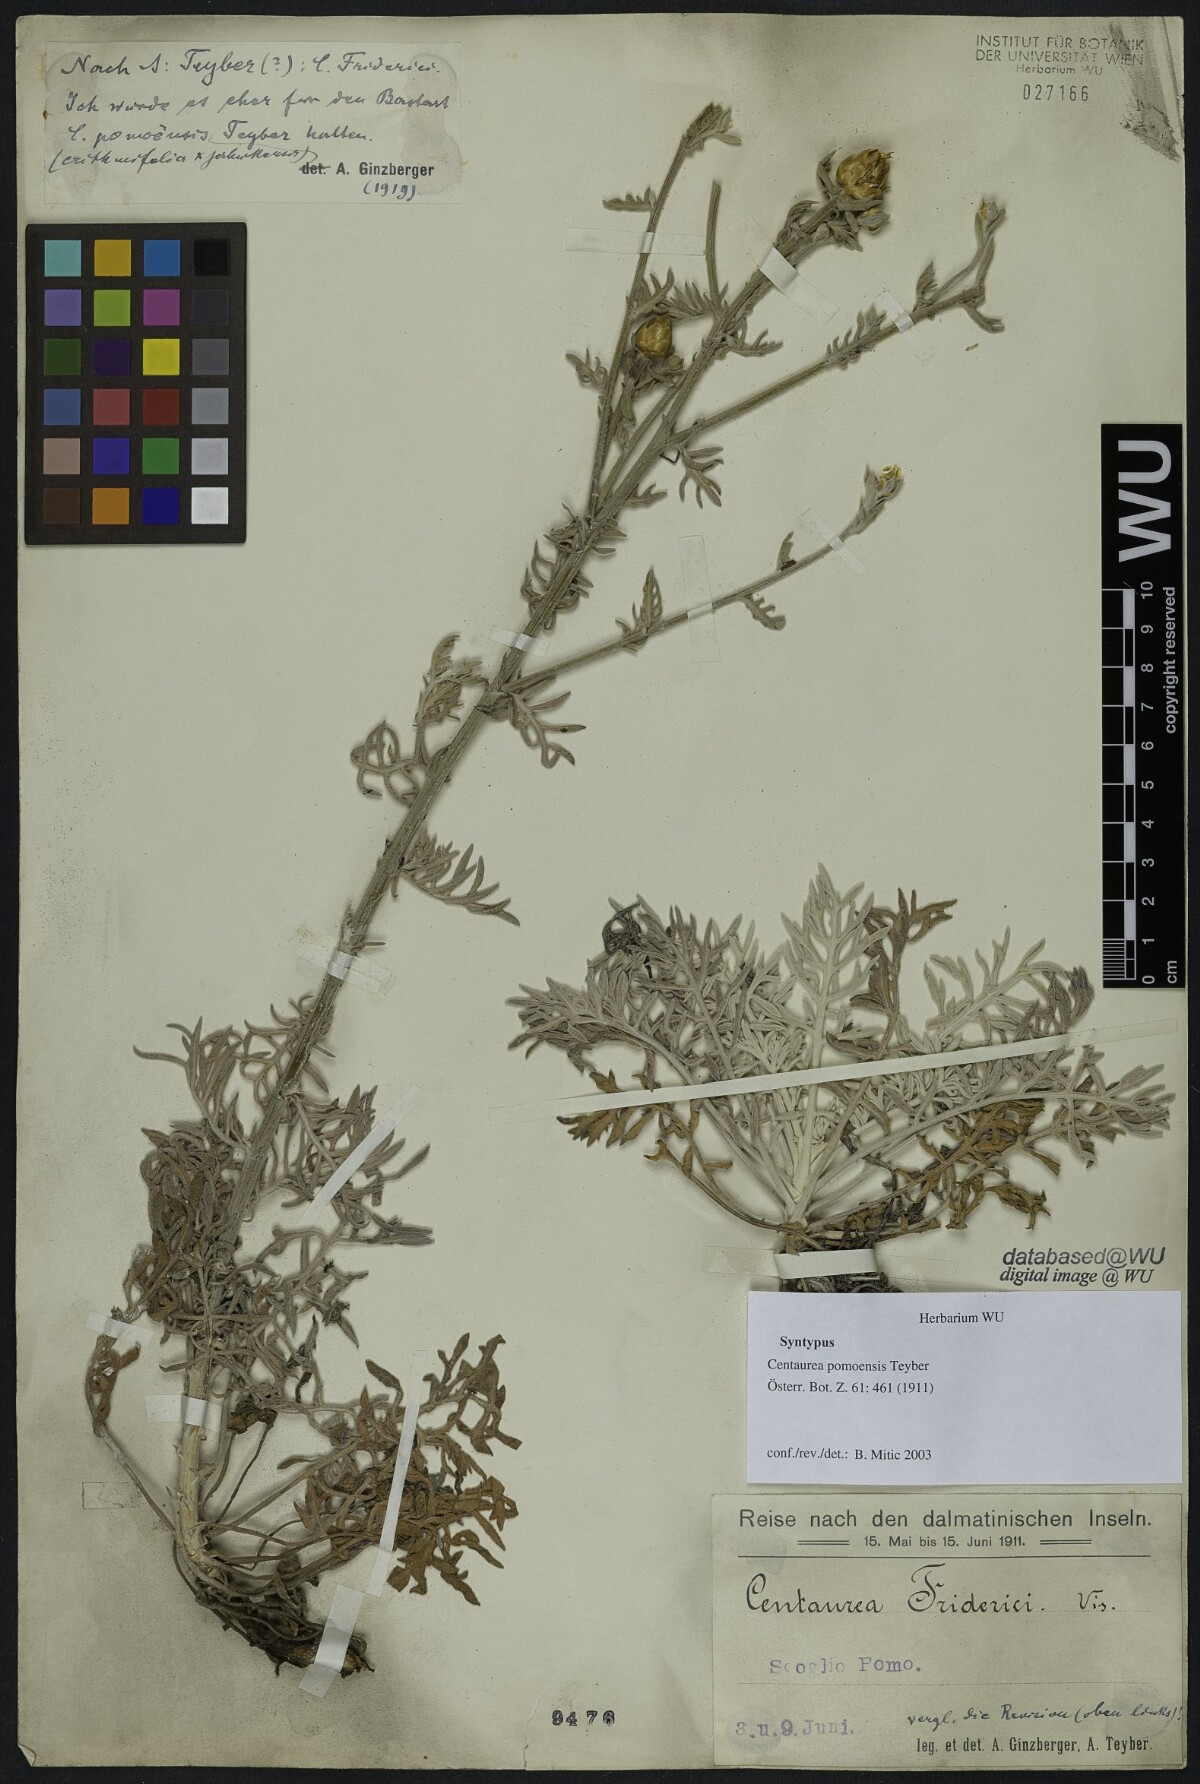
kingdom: Plantae
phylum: Tracheophyta
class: Magnoliopsida
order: Asterales
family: Asteraceae
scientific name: Asteraceae
